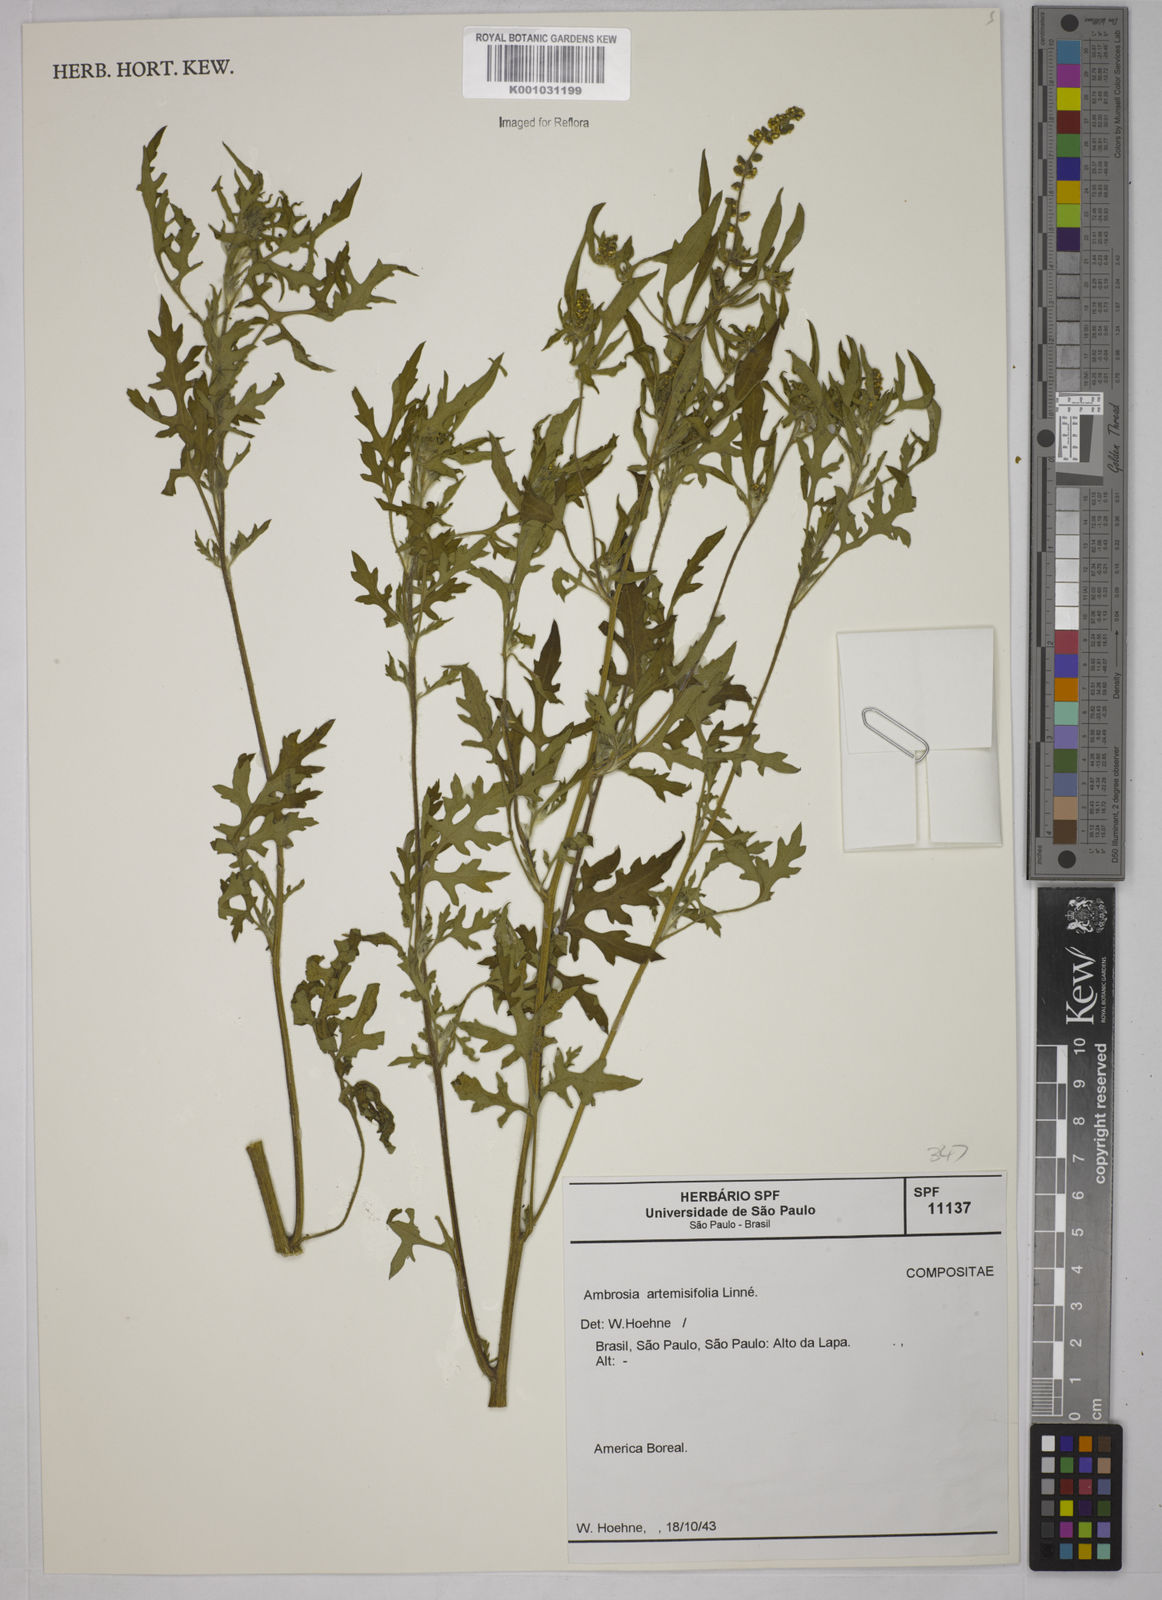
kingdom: Plantae
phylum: Tracheophyta
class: Magnoliopsida
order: Asterales
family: Asteraceae
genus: Ambrosia
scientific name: Ambrosia artemisiifolia
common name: Annual ragweed
